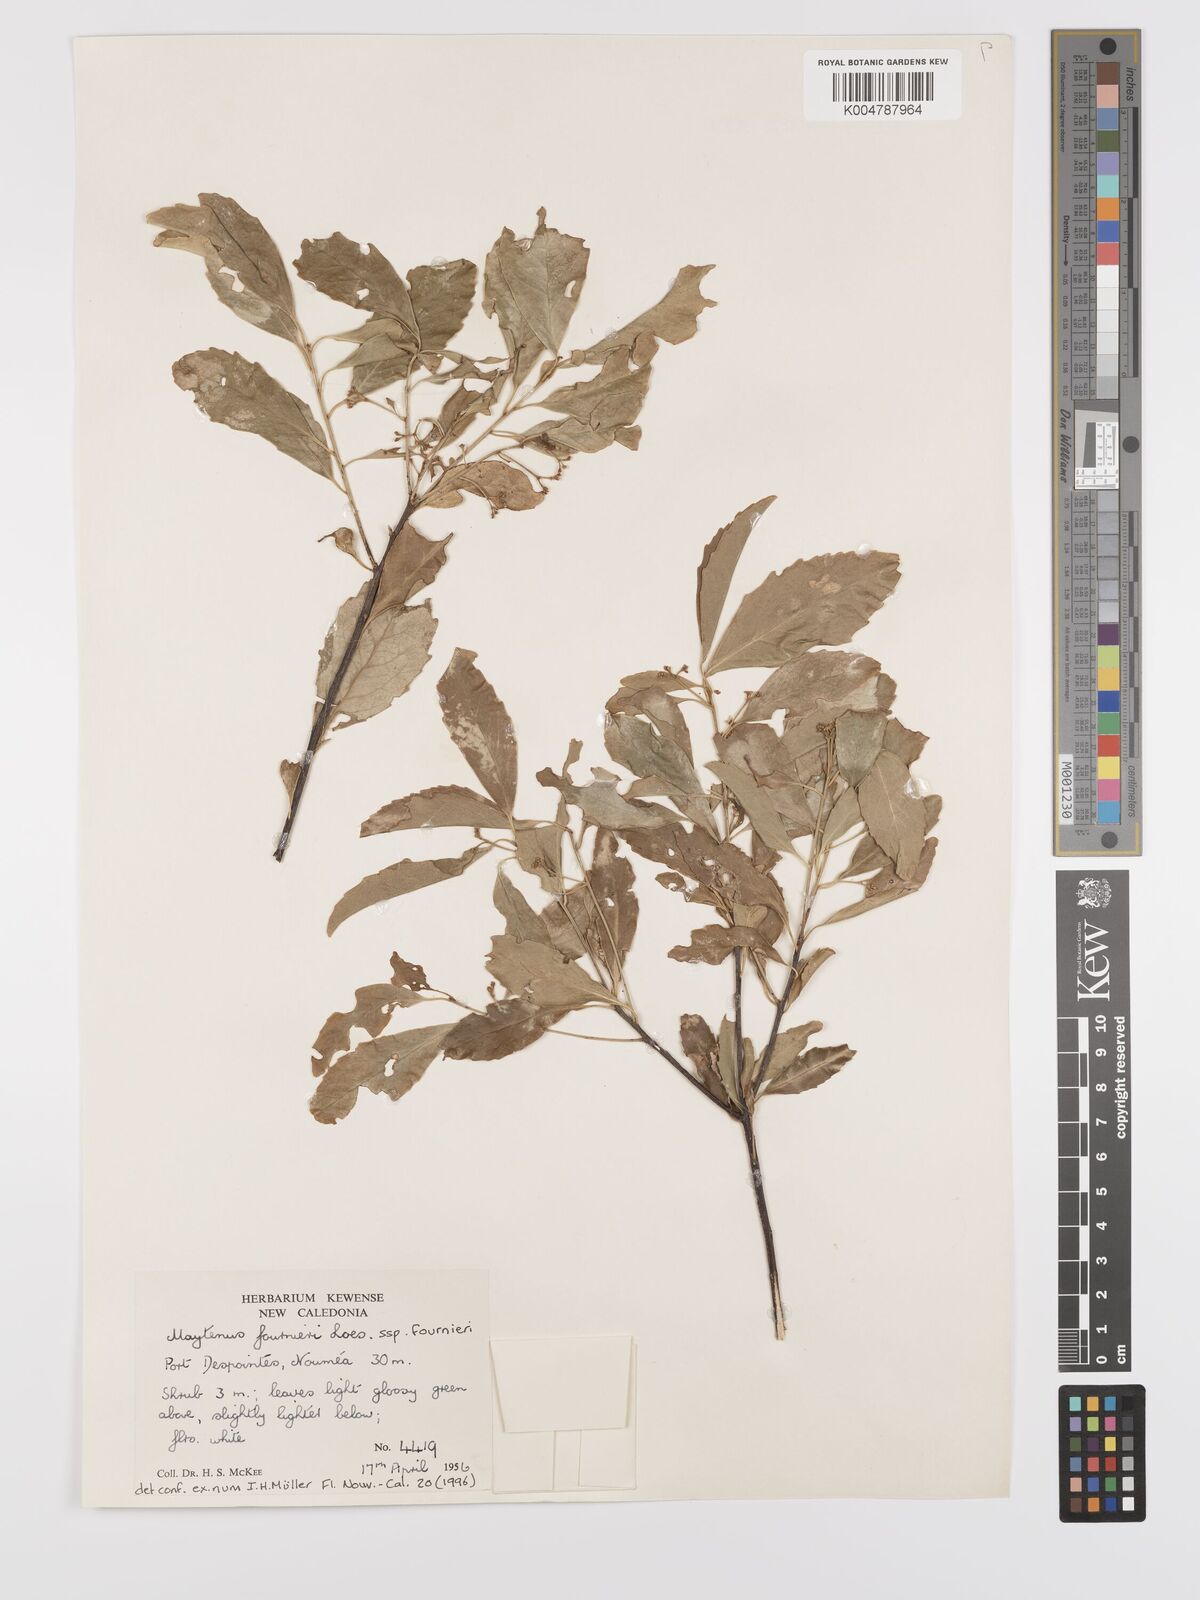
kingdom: Plantae
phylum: Tracheophyta
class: Magnoliopsida
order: Celastrales
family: Celastraceae
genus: Denhamia
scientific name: Denhamia
